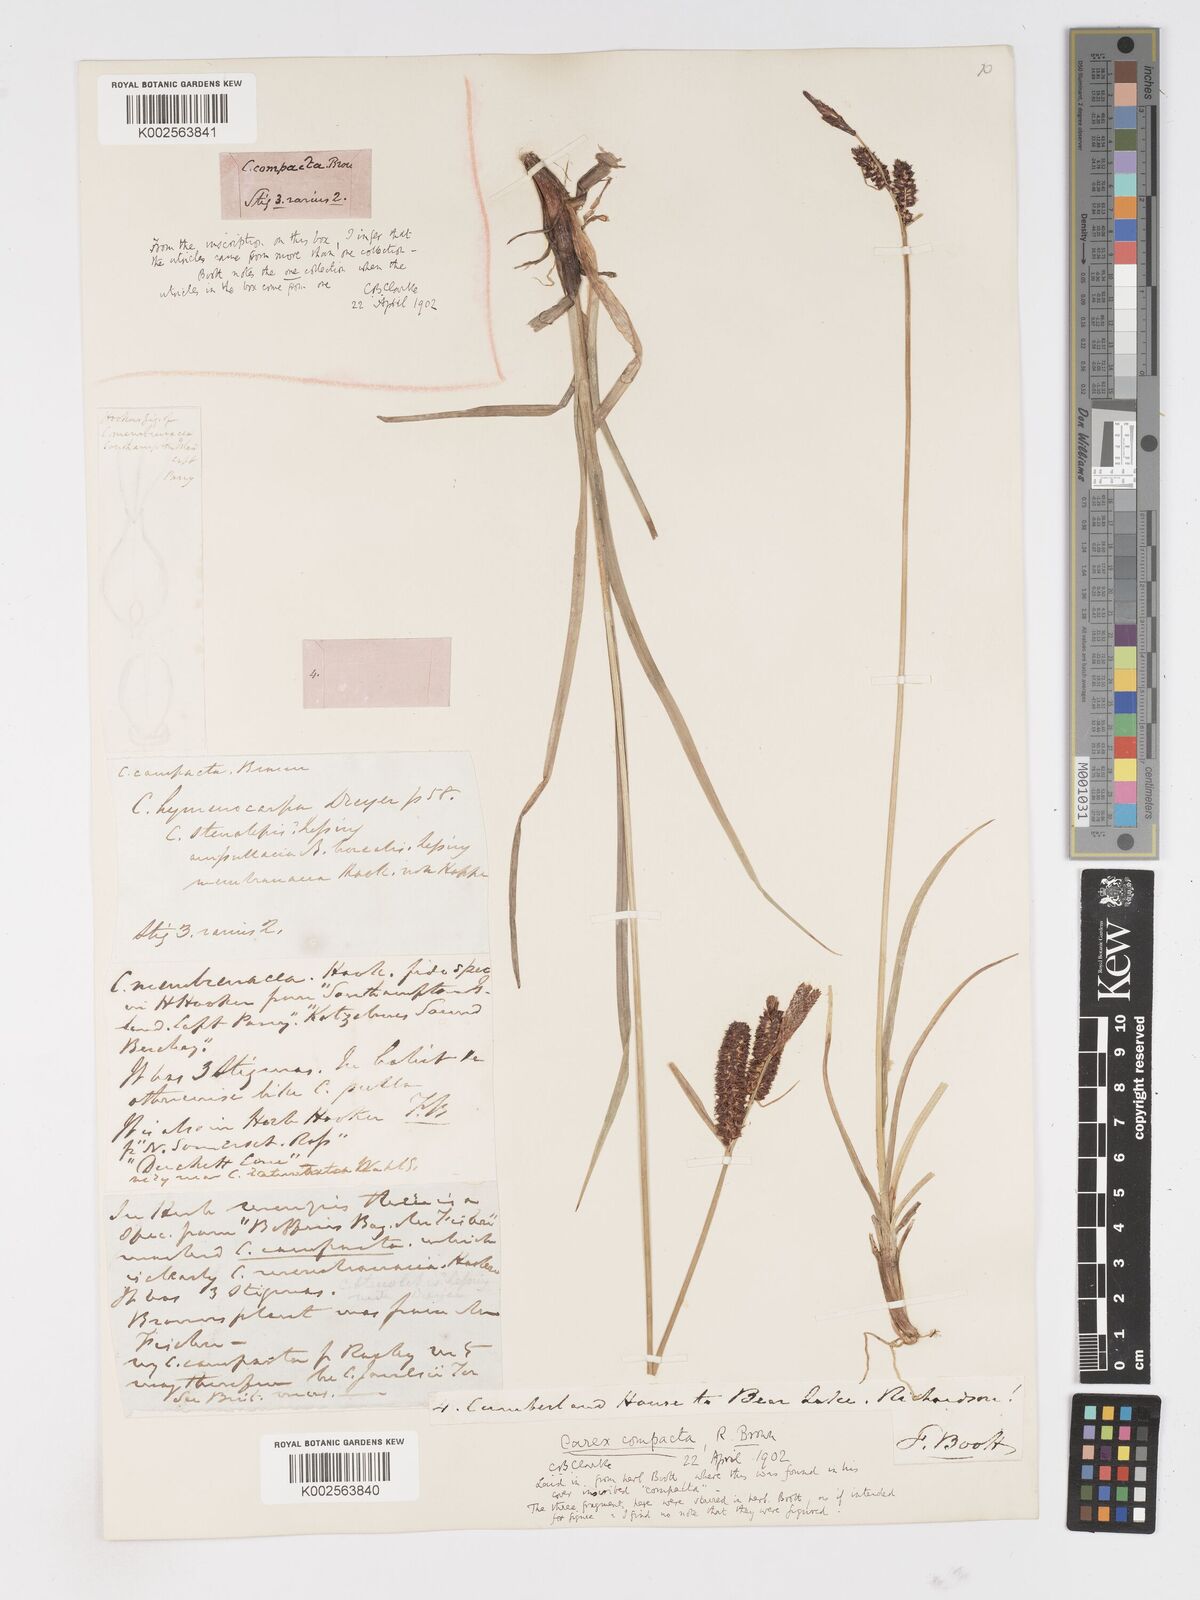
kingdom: Plantae
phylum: Tracheophyta
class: Liliopsida
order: Poales
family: Cyperaceae
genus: Carex
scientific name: Carex membranacea
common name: Fragile sedge
